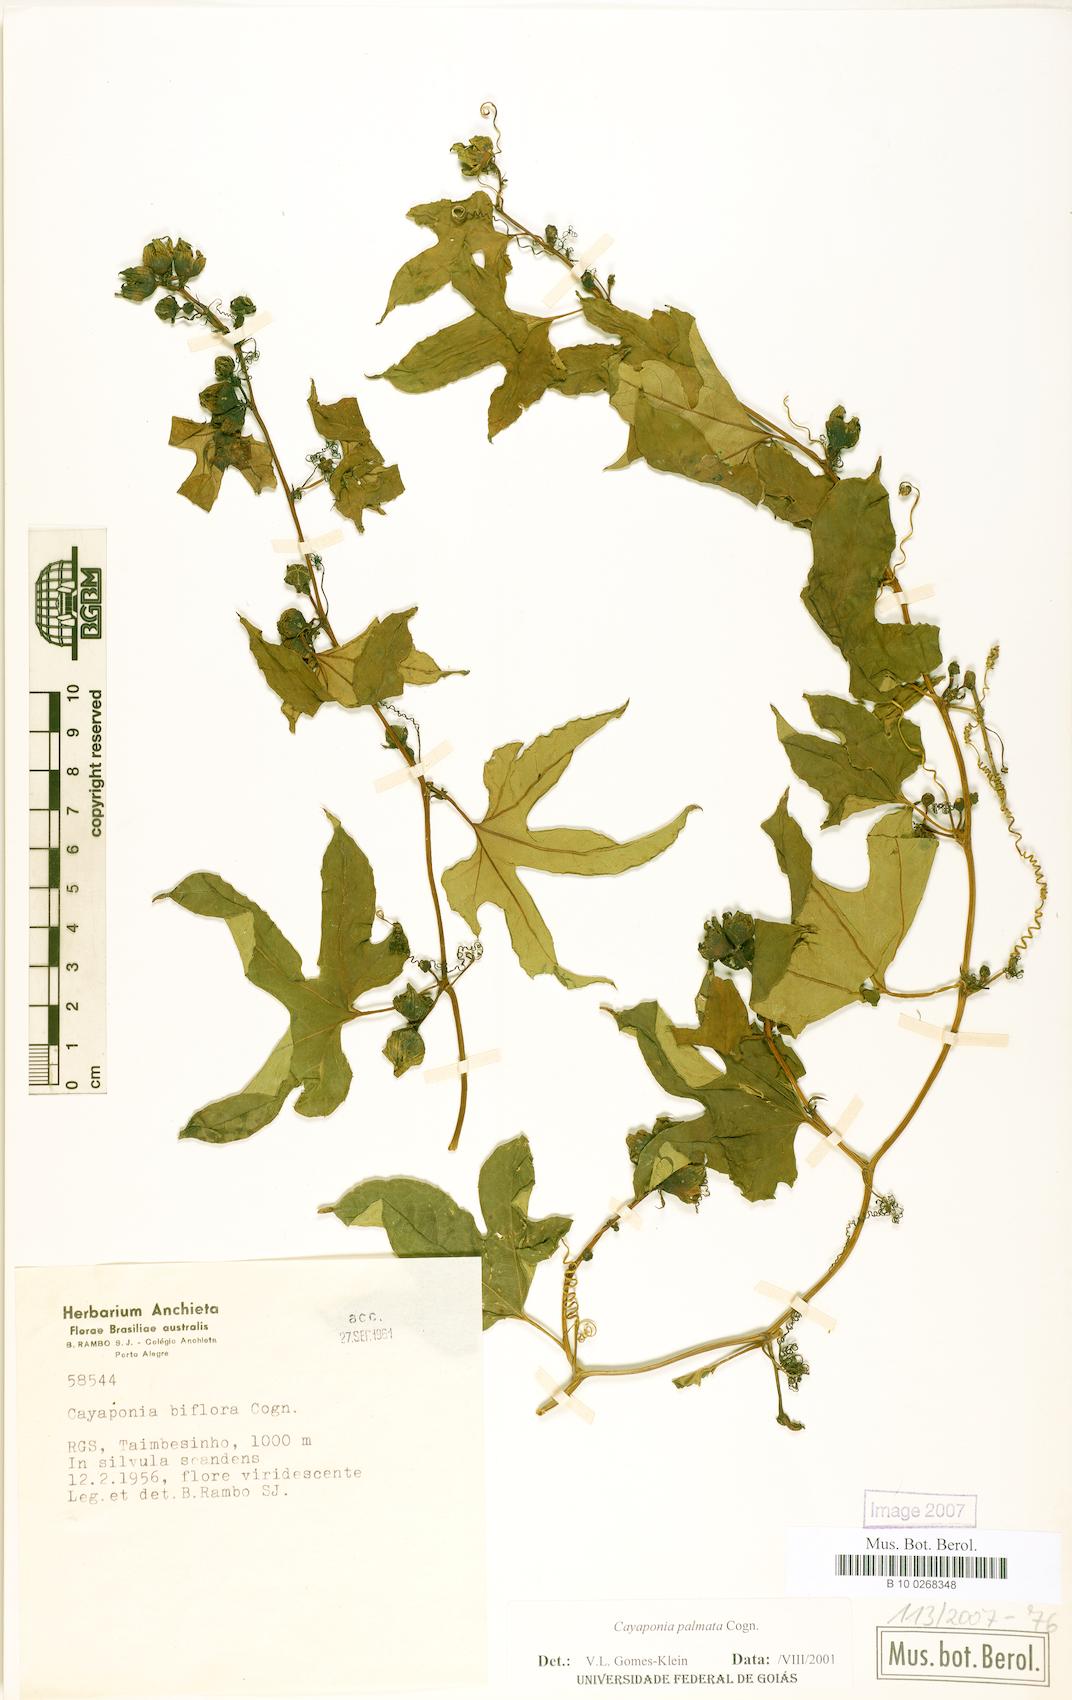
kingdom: Plantae
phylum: Tracheophyta
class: Magnoliopsida
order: Cucurbitales
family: Cucurbitaceae
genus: Cayaponia
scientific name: Cayaponia biflora
